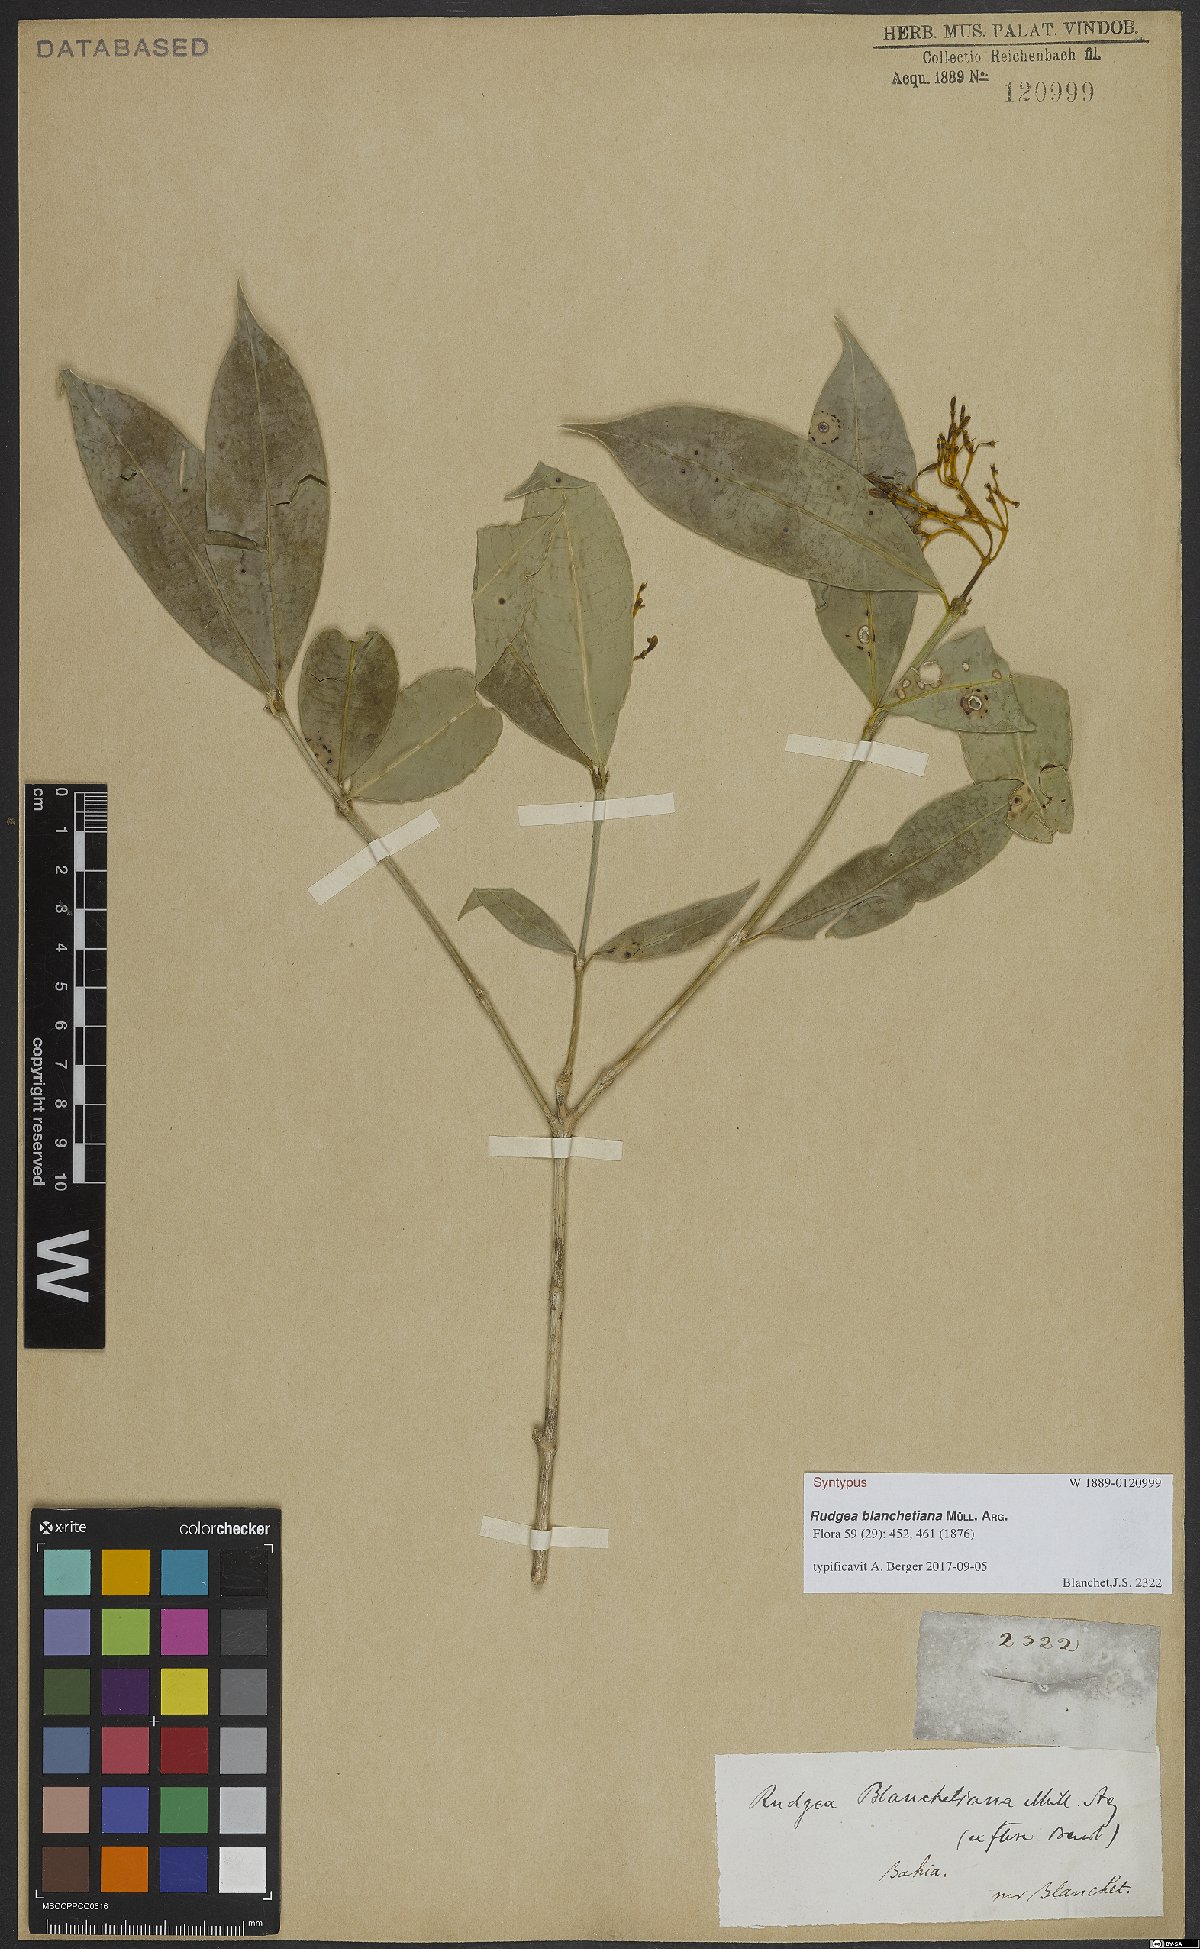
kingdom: Plantae
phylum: Tracheophyta
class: Magnoliopsida
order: Gentianales
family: Rubiaceae
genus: Rudgea
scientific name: Rudgea blanchetiana
